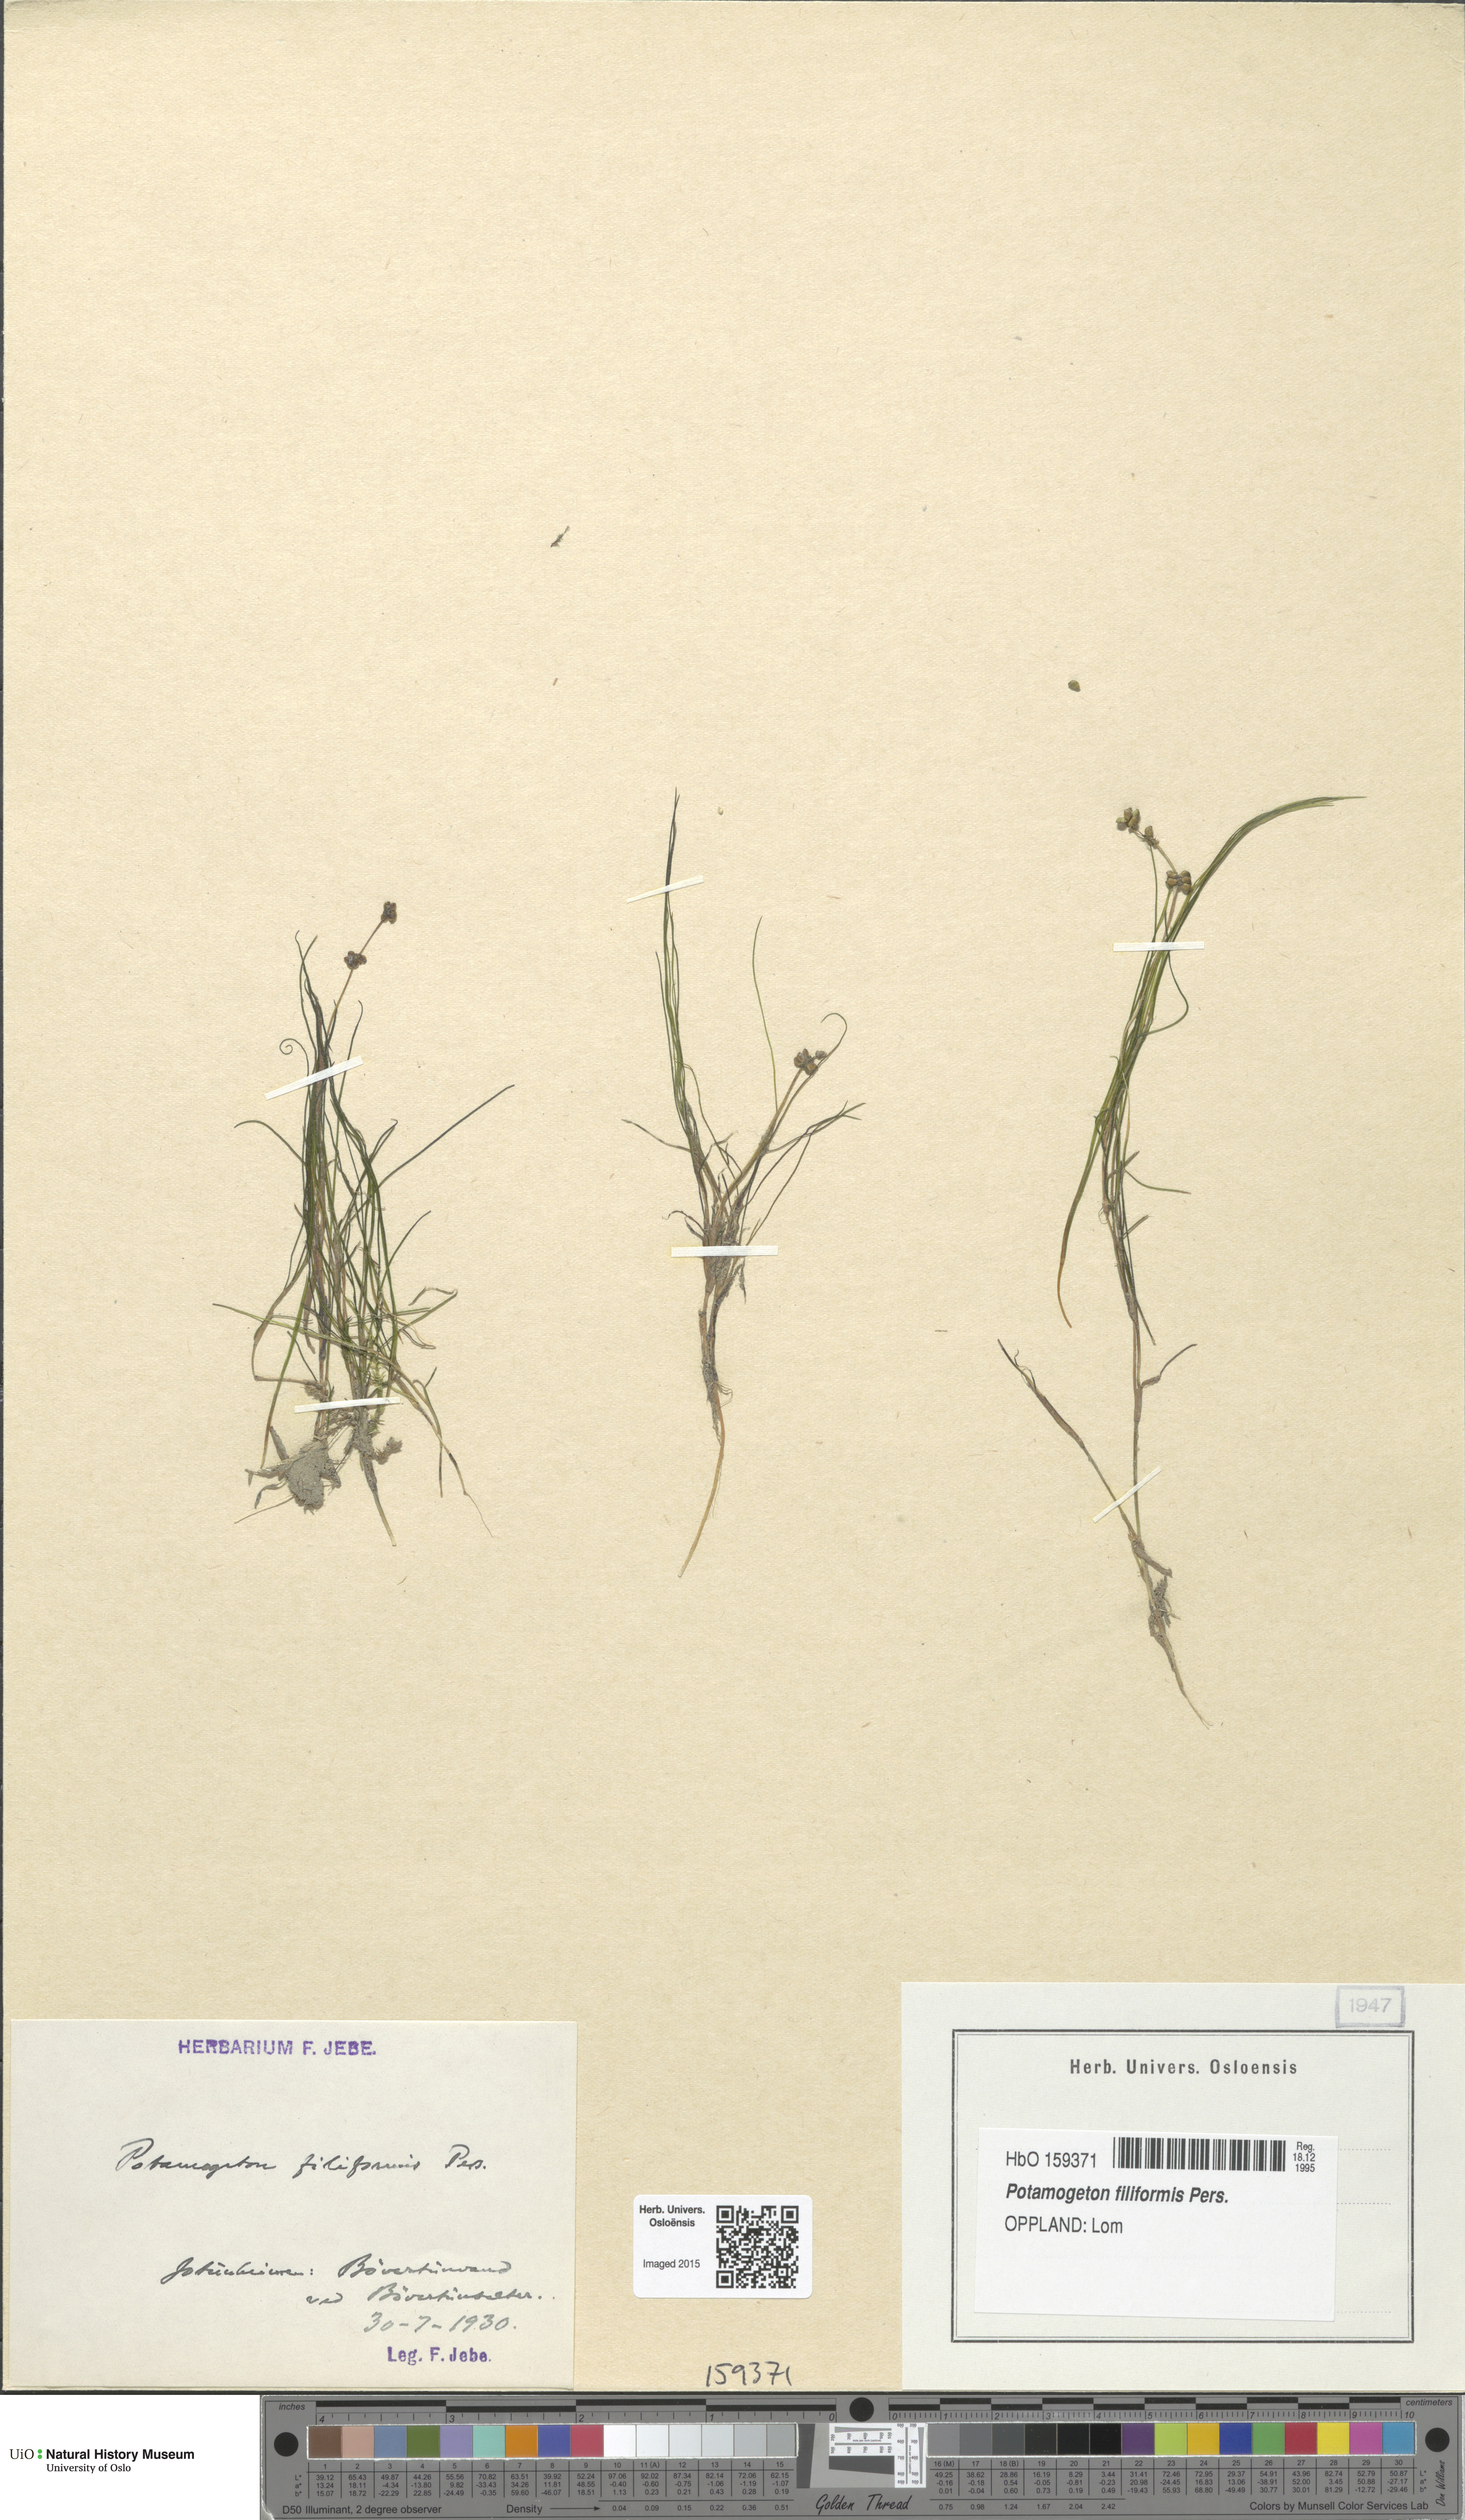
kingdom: Plantae
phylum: Tracheophyta
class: Liliopsida
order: Alismatales
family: Potamogetonaceae
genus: Stuckenia
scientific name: Stuckenia filiformis
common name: Alpine thread-leaved pondweed
